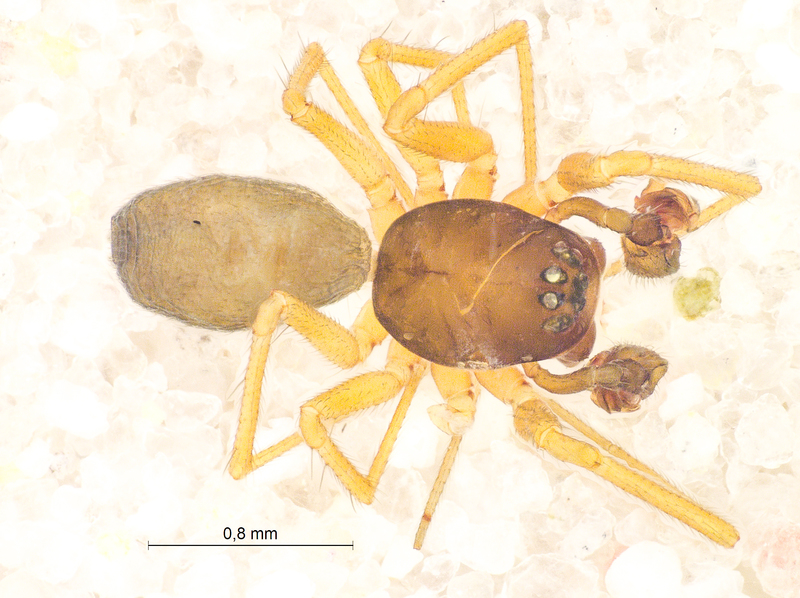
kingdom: Animalia
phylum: Arthropoda
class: Arachnida
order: Araneae
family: Linyphiidae
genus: Agyneta
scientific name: Agyneta rurestris
